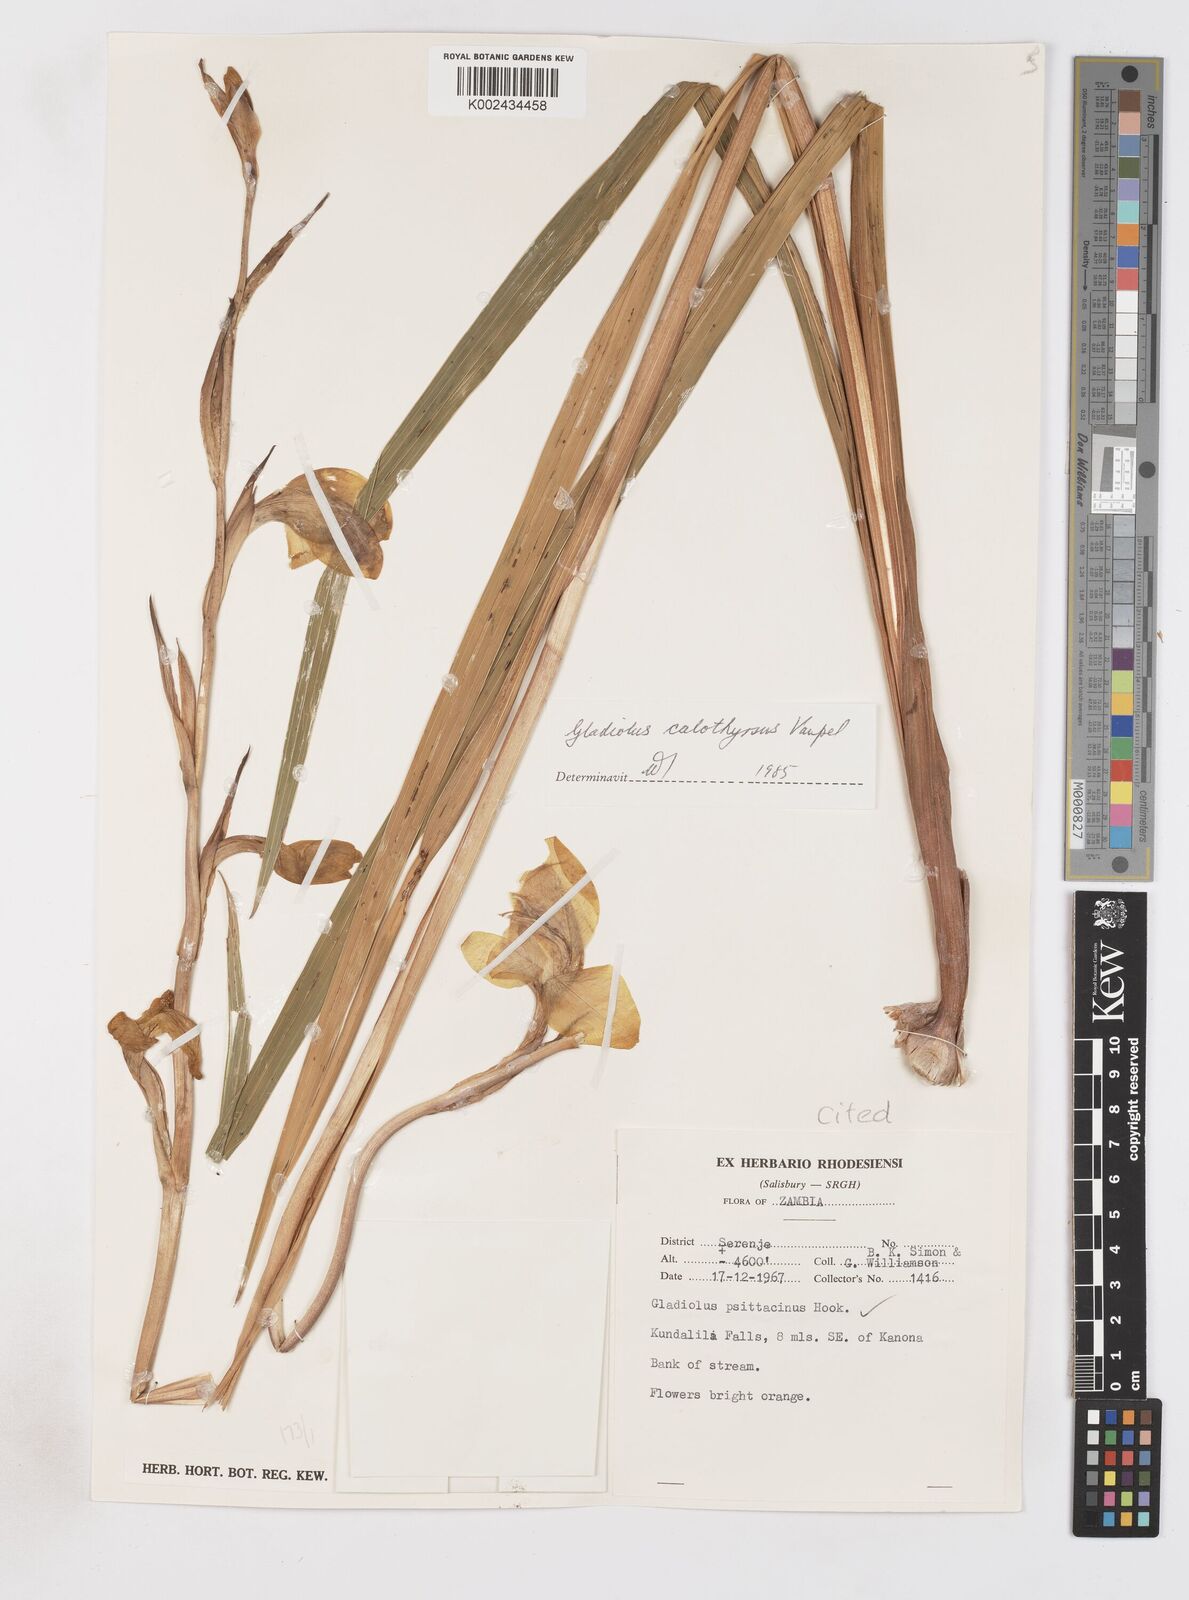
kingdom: Plantae
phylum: Tracheophyta
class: Liliopsida
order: Asparagales
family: Iridaceae
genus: Gladiolus
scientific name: Gladiolus dalenii
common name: Cornflag
